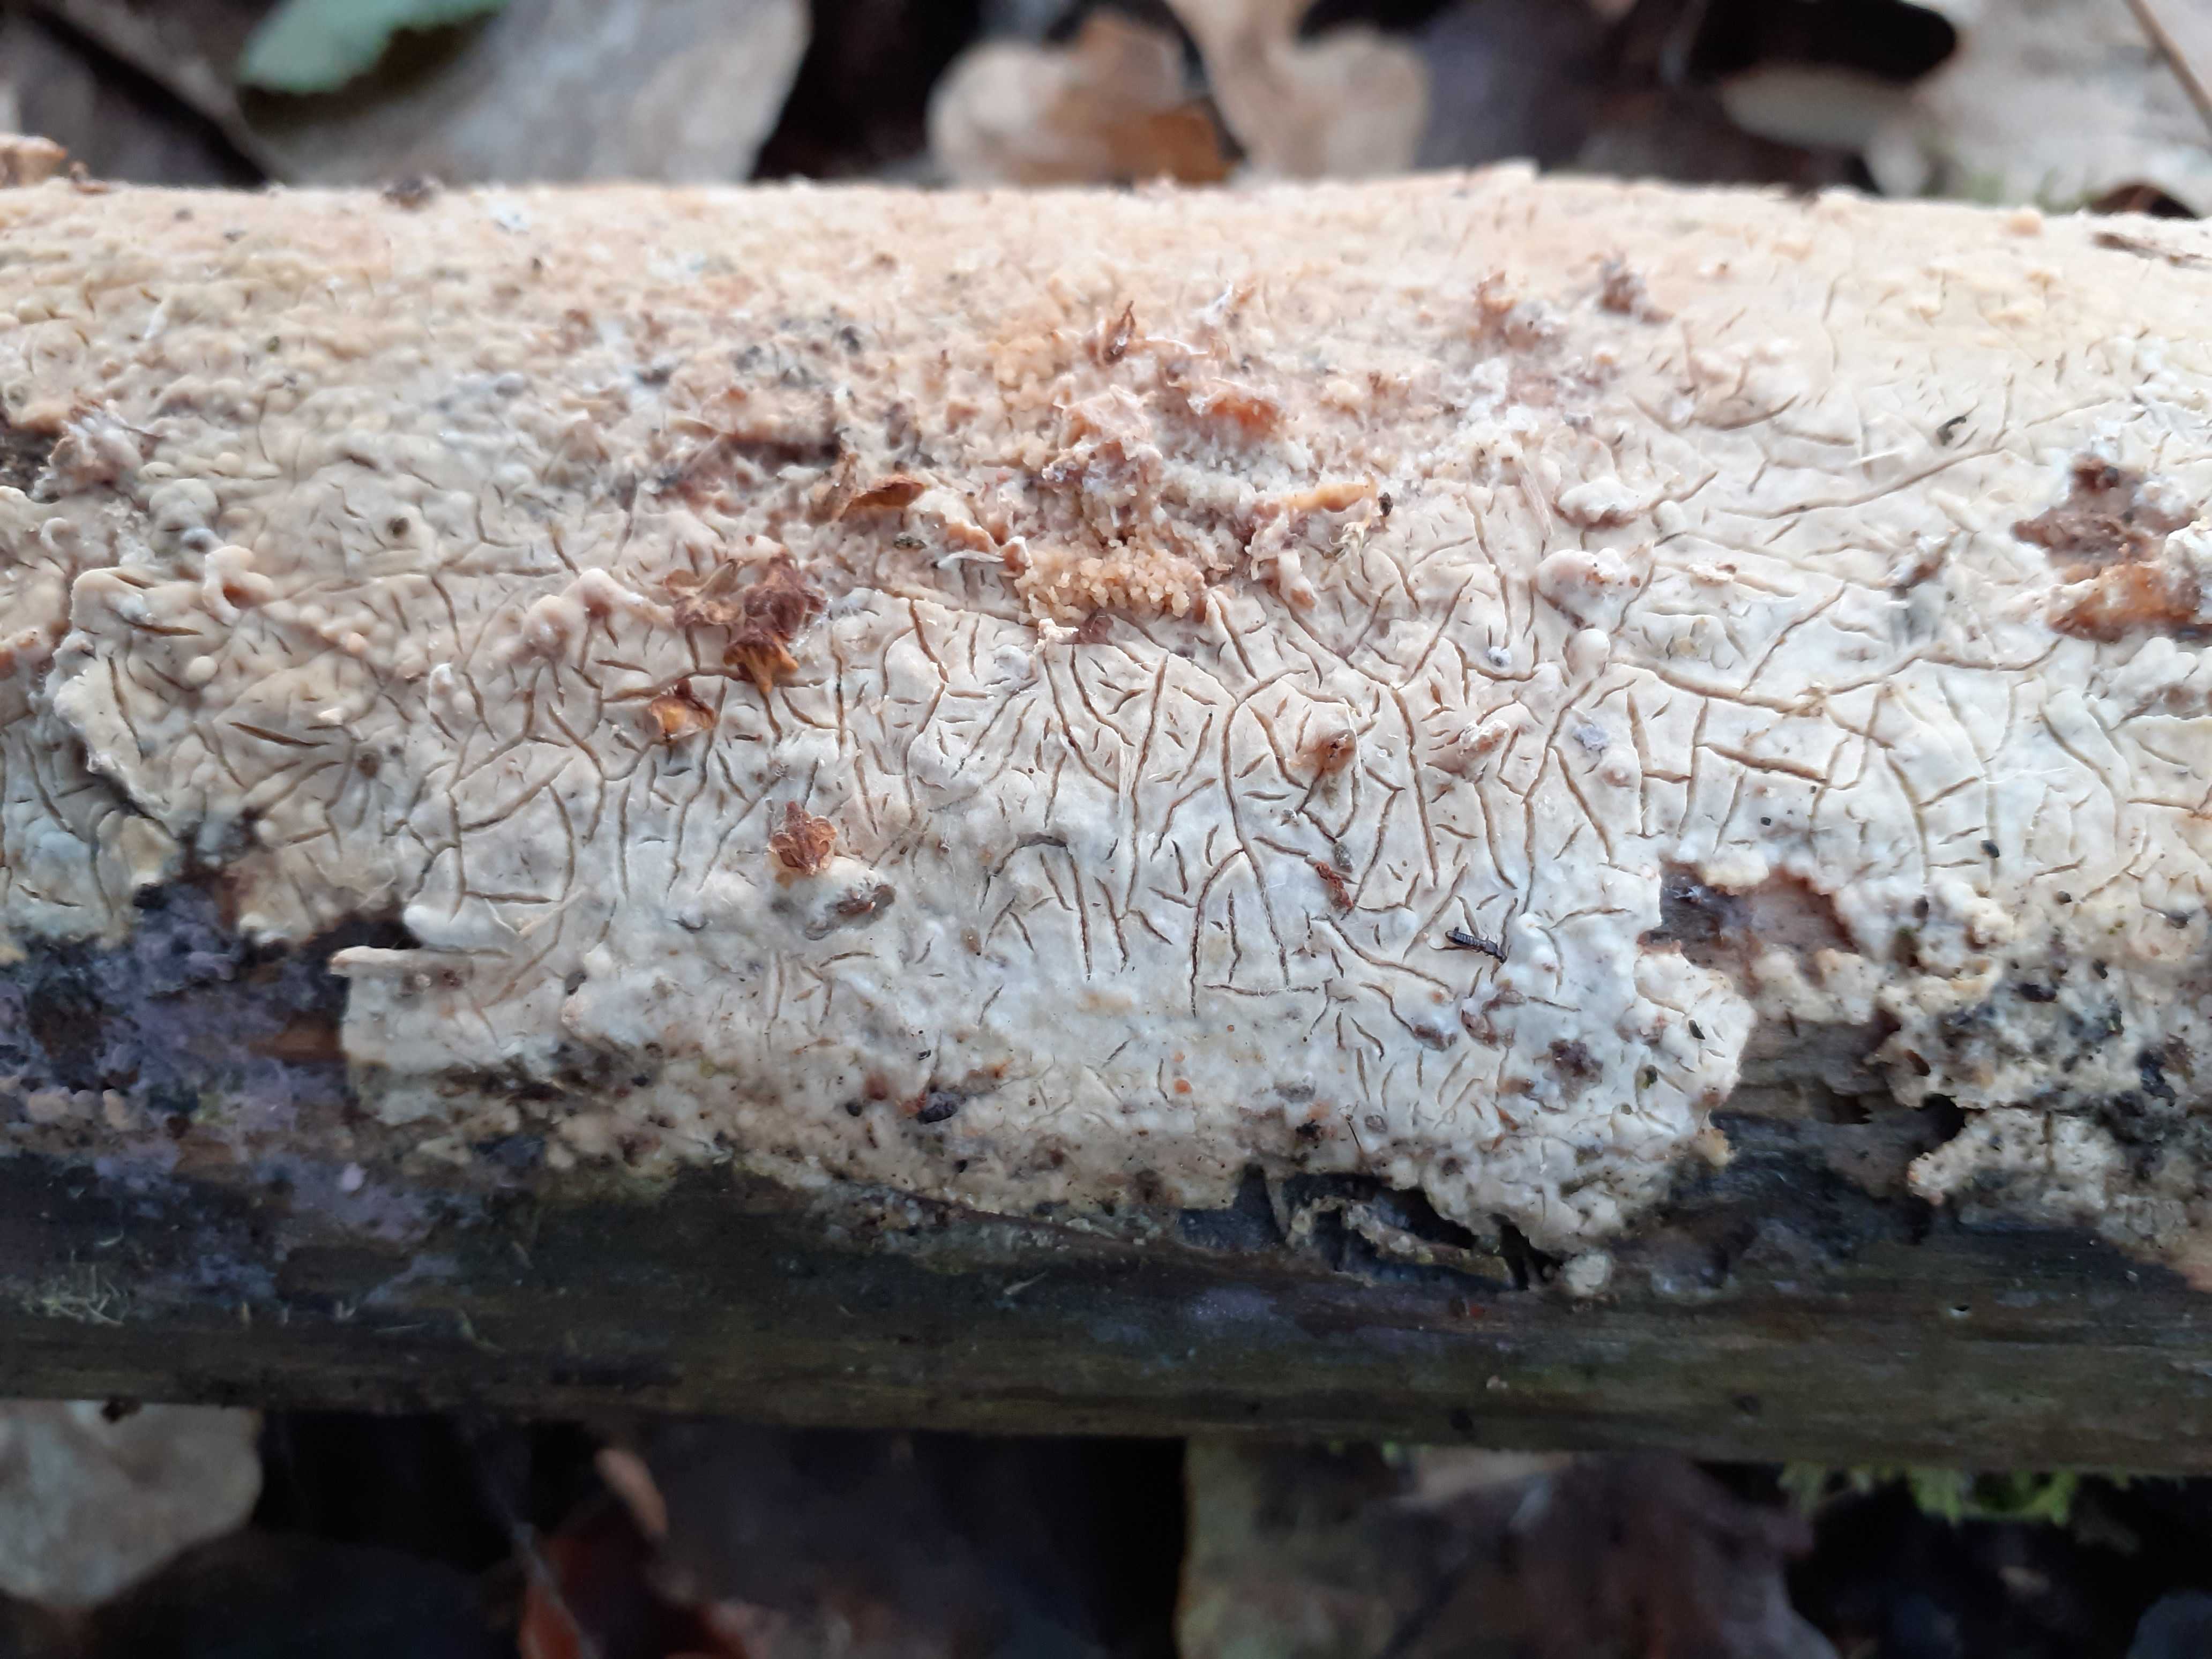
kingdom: Fungi
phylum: Basidiomycota
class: Agaricomycetes
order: Agaricales
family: Physalacriaceae
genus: Cylindrobasidium
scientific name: Cylindrobasidium evolvens
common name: sprækkehinde
